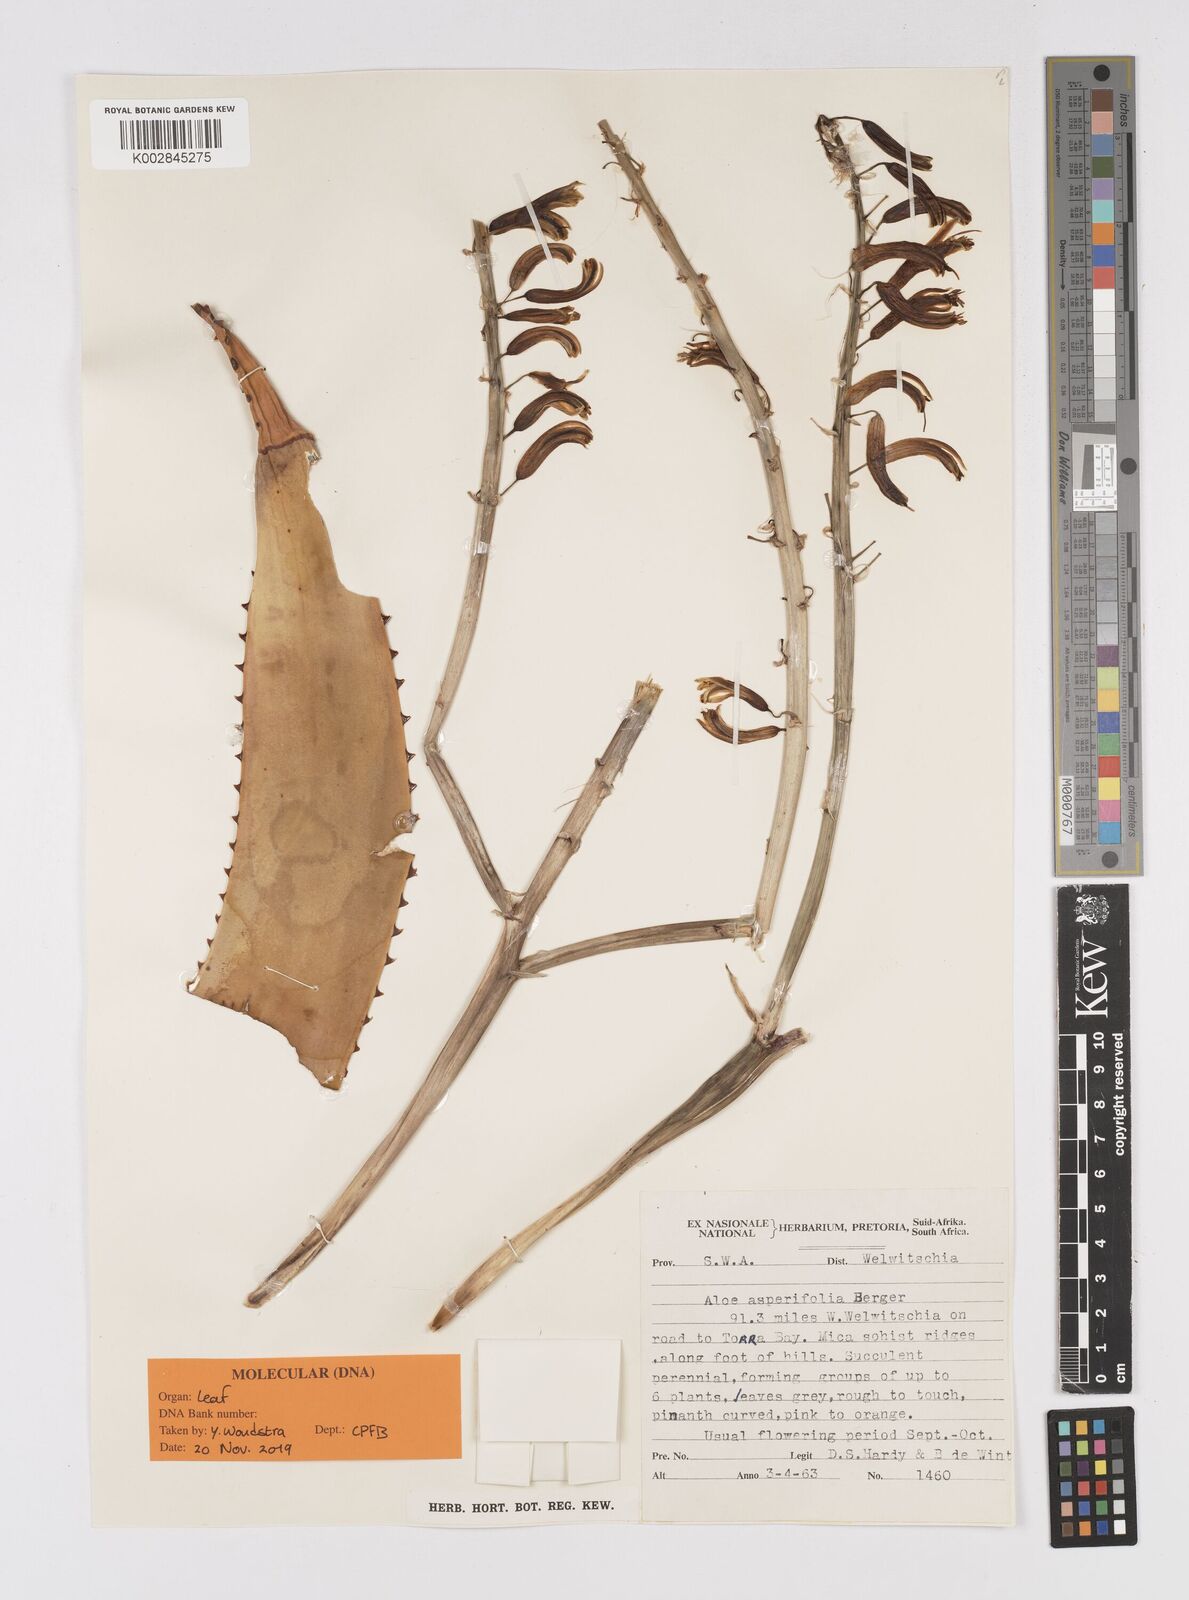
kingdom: Plantae
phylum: Tracheophyta
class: Liliopsida
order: Asparagales
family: Asphodelaceae
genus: Aloe
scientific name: Aloe asperifolia
